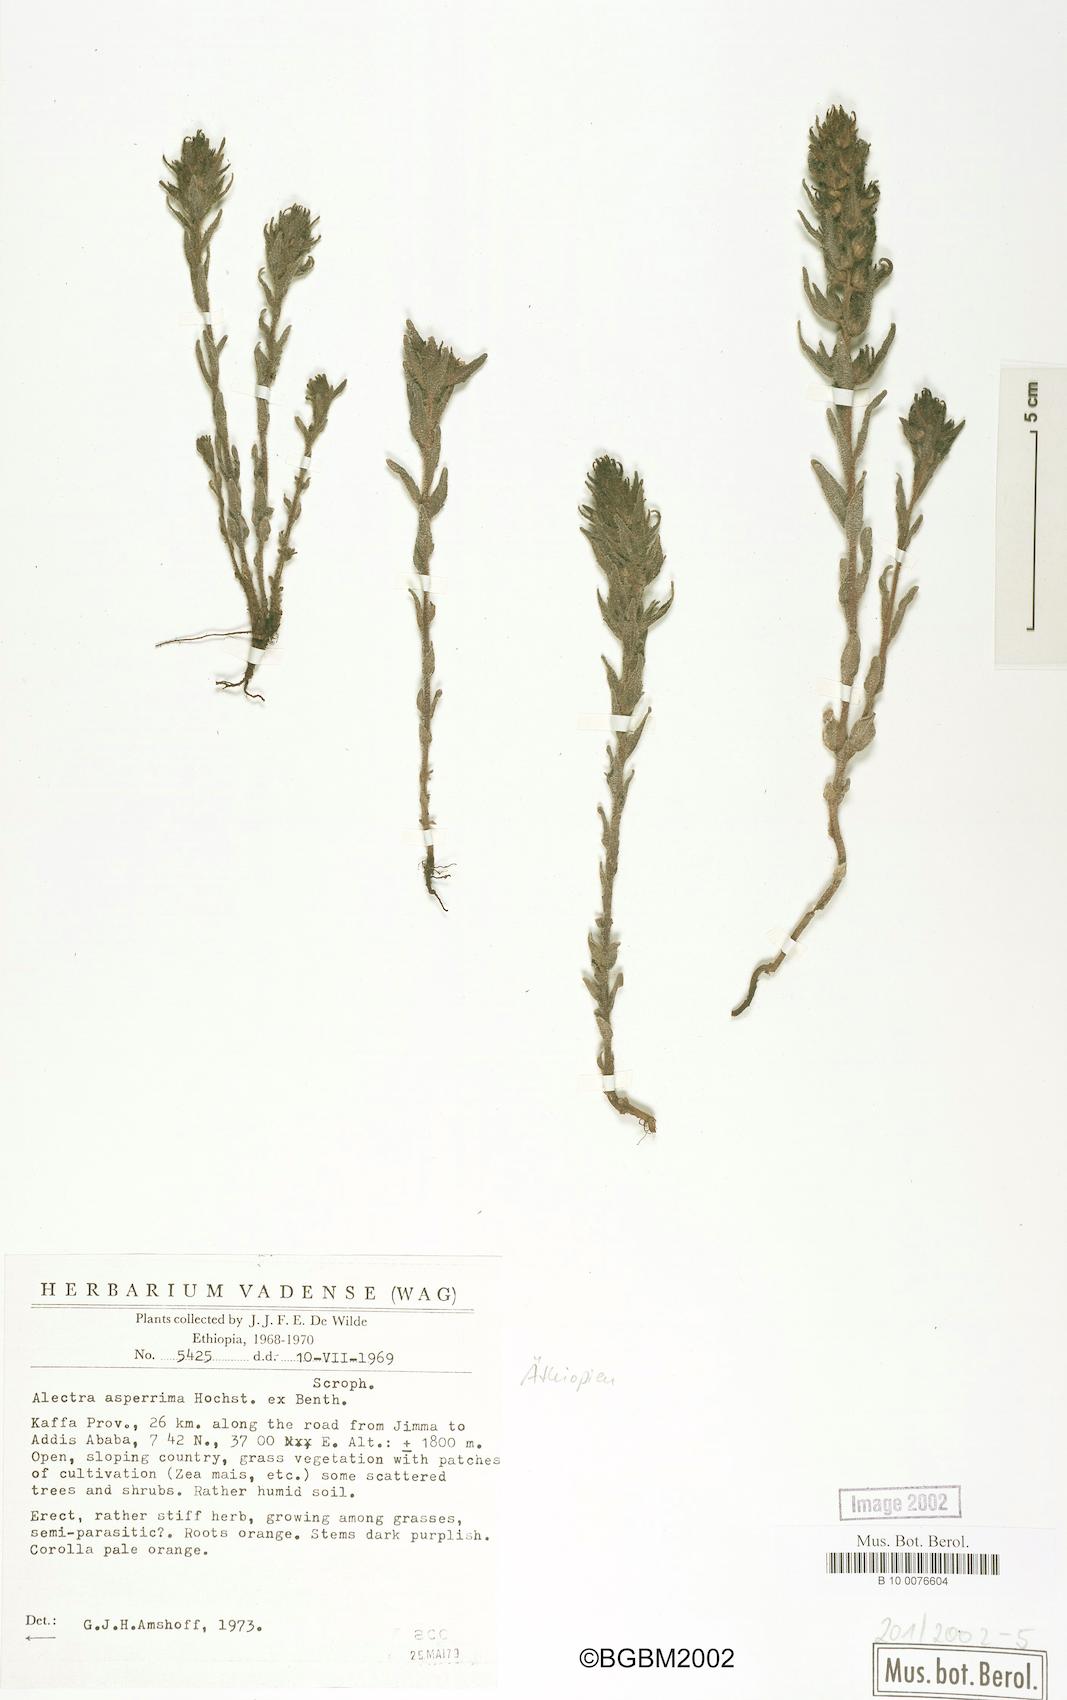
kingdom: Plantae
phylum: Tracheophyta
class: Magnoliopsida
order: Lamiales
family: Orobanchaceae
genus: Alectra
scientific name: Alectra asperrima
